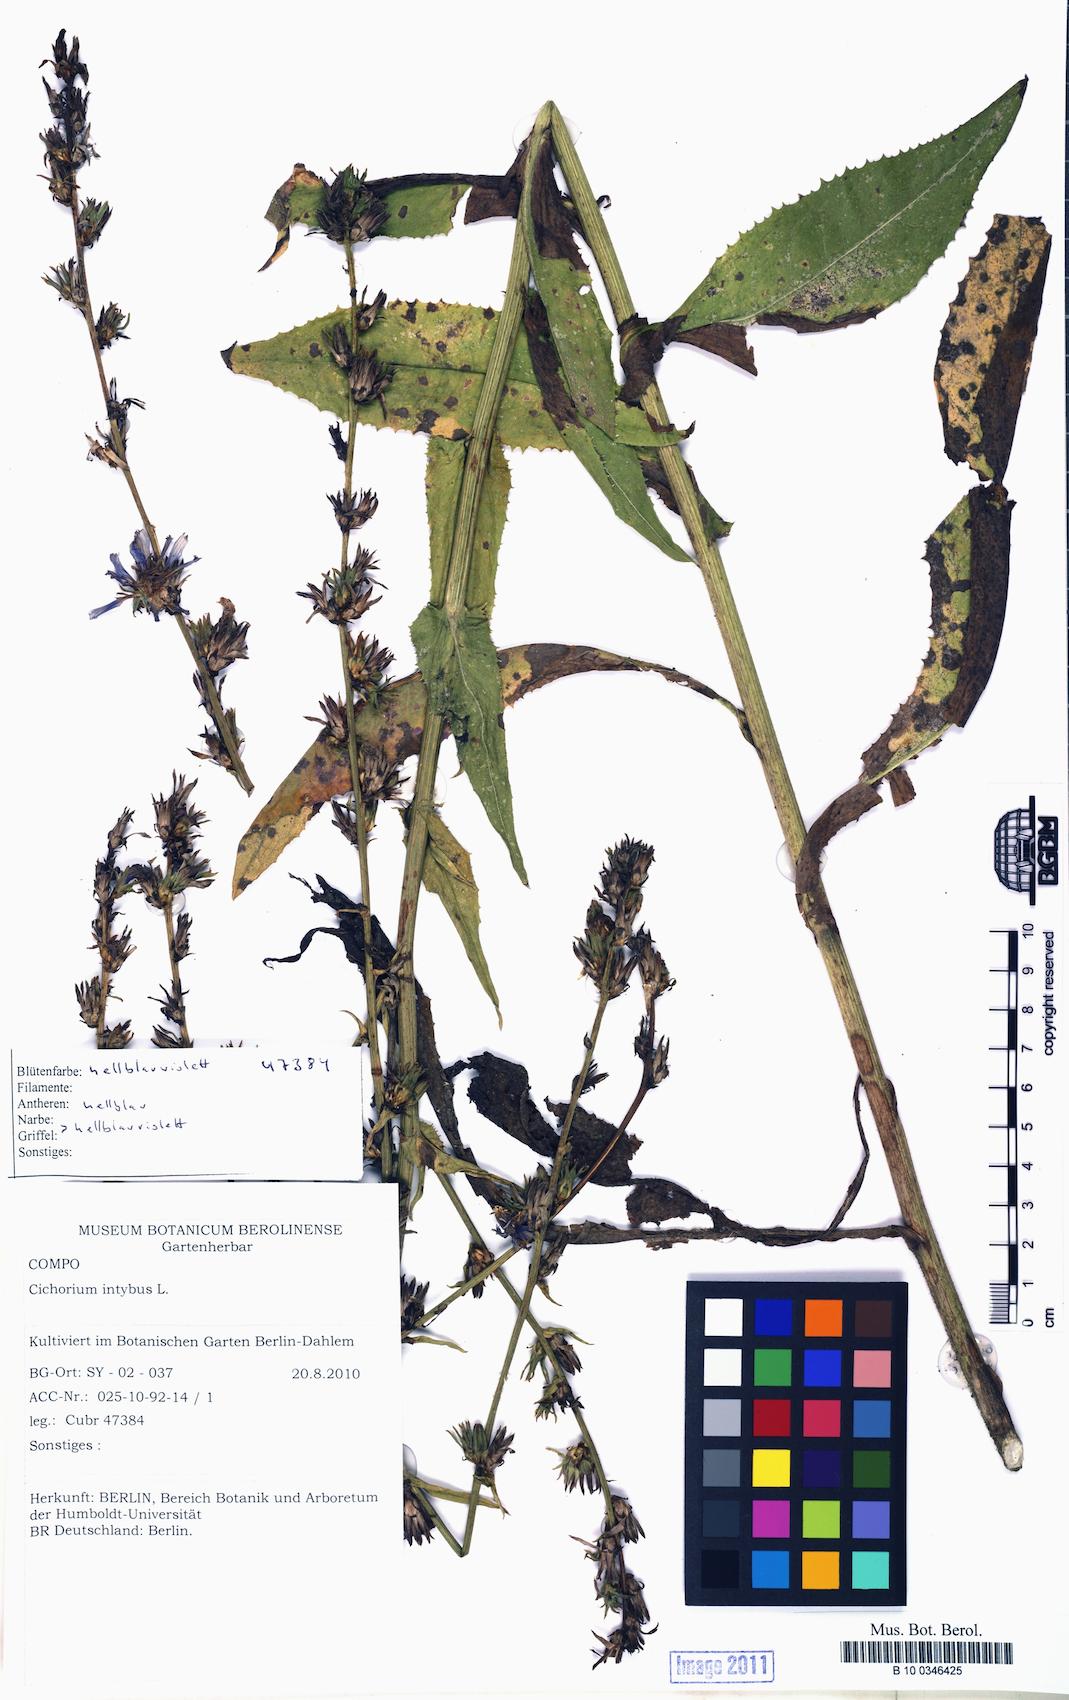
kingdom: Plantae
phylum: Tracheophyta
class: Magnoliopsida
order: Asterales
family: Asteraceae
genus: Cichorium
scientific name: Cichorium intybus
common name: Chicory
